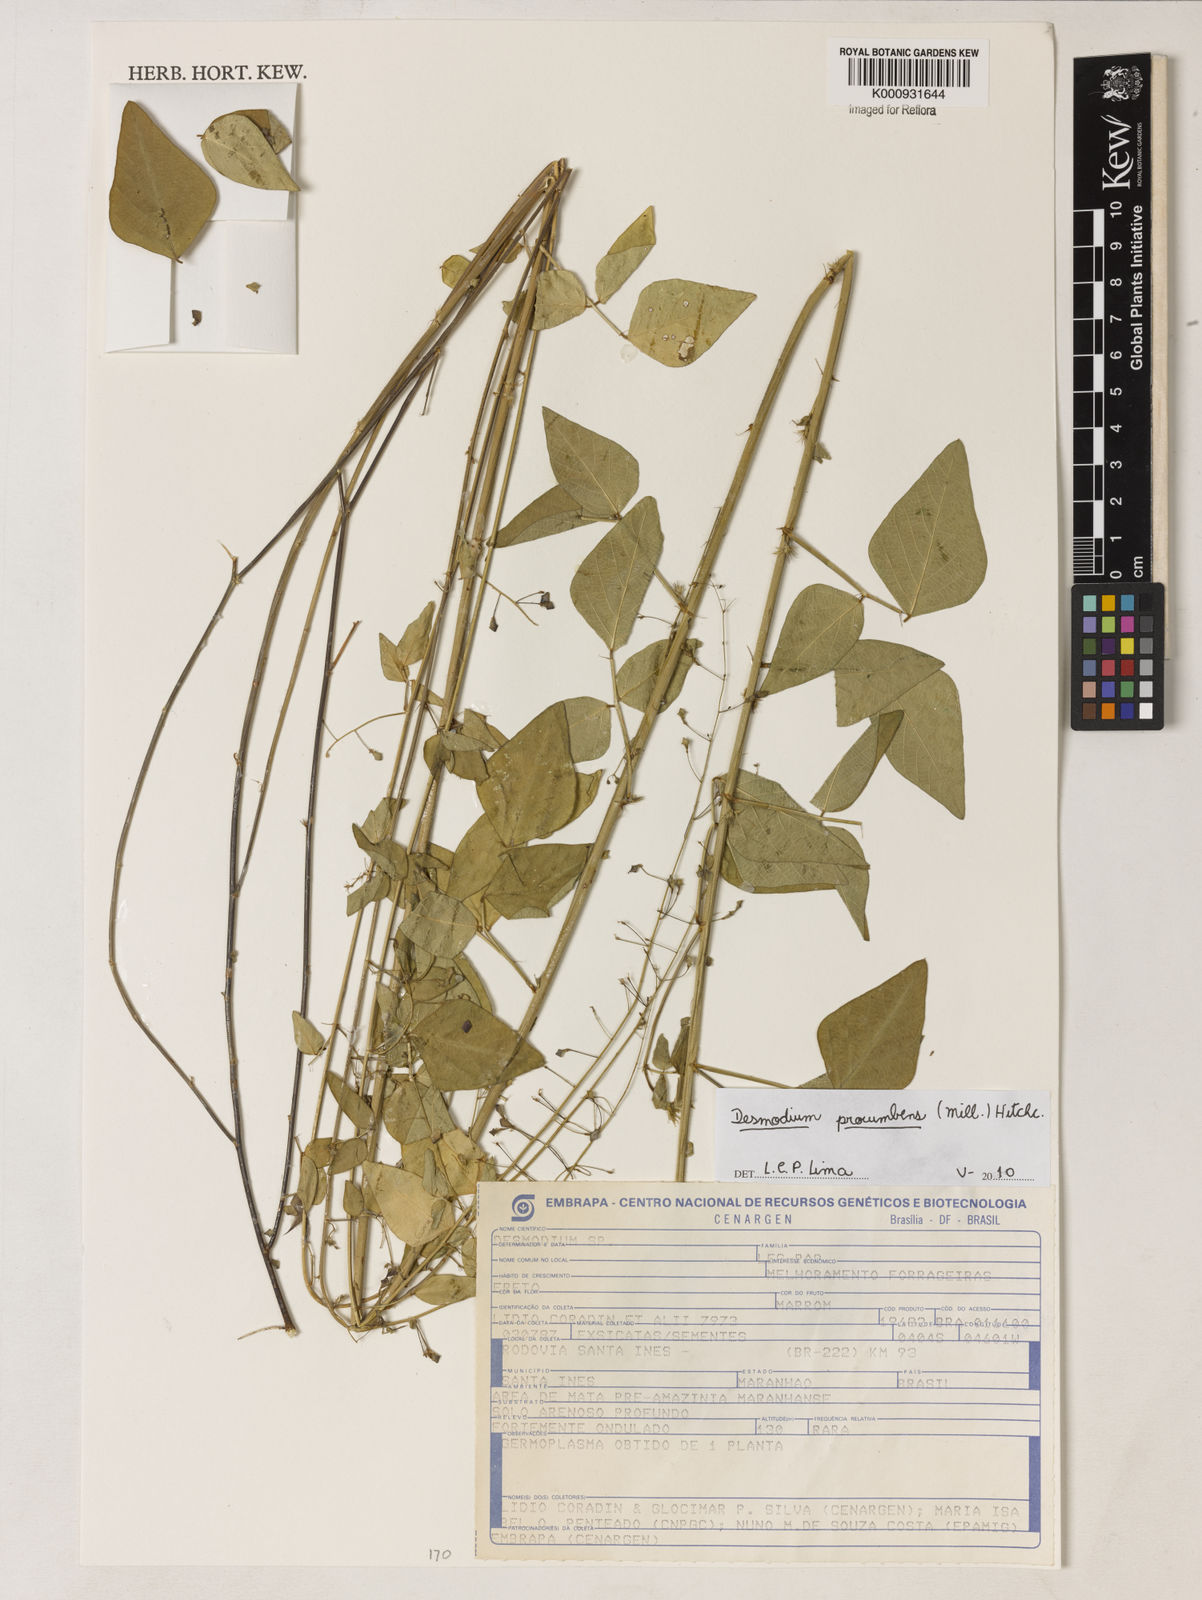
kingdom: Plantae
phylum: Tracheophyta
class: Magnoliopsida
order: Fabales
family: Fabaceae
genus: Desmodium
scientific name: Desmodium
